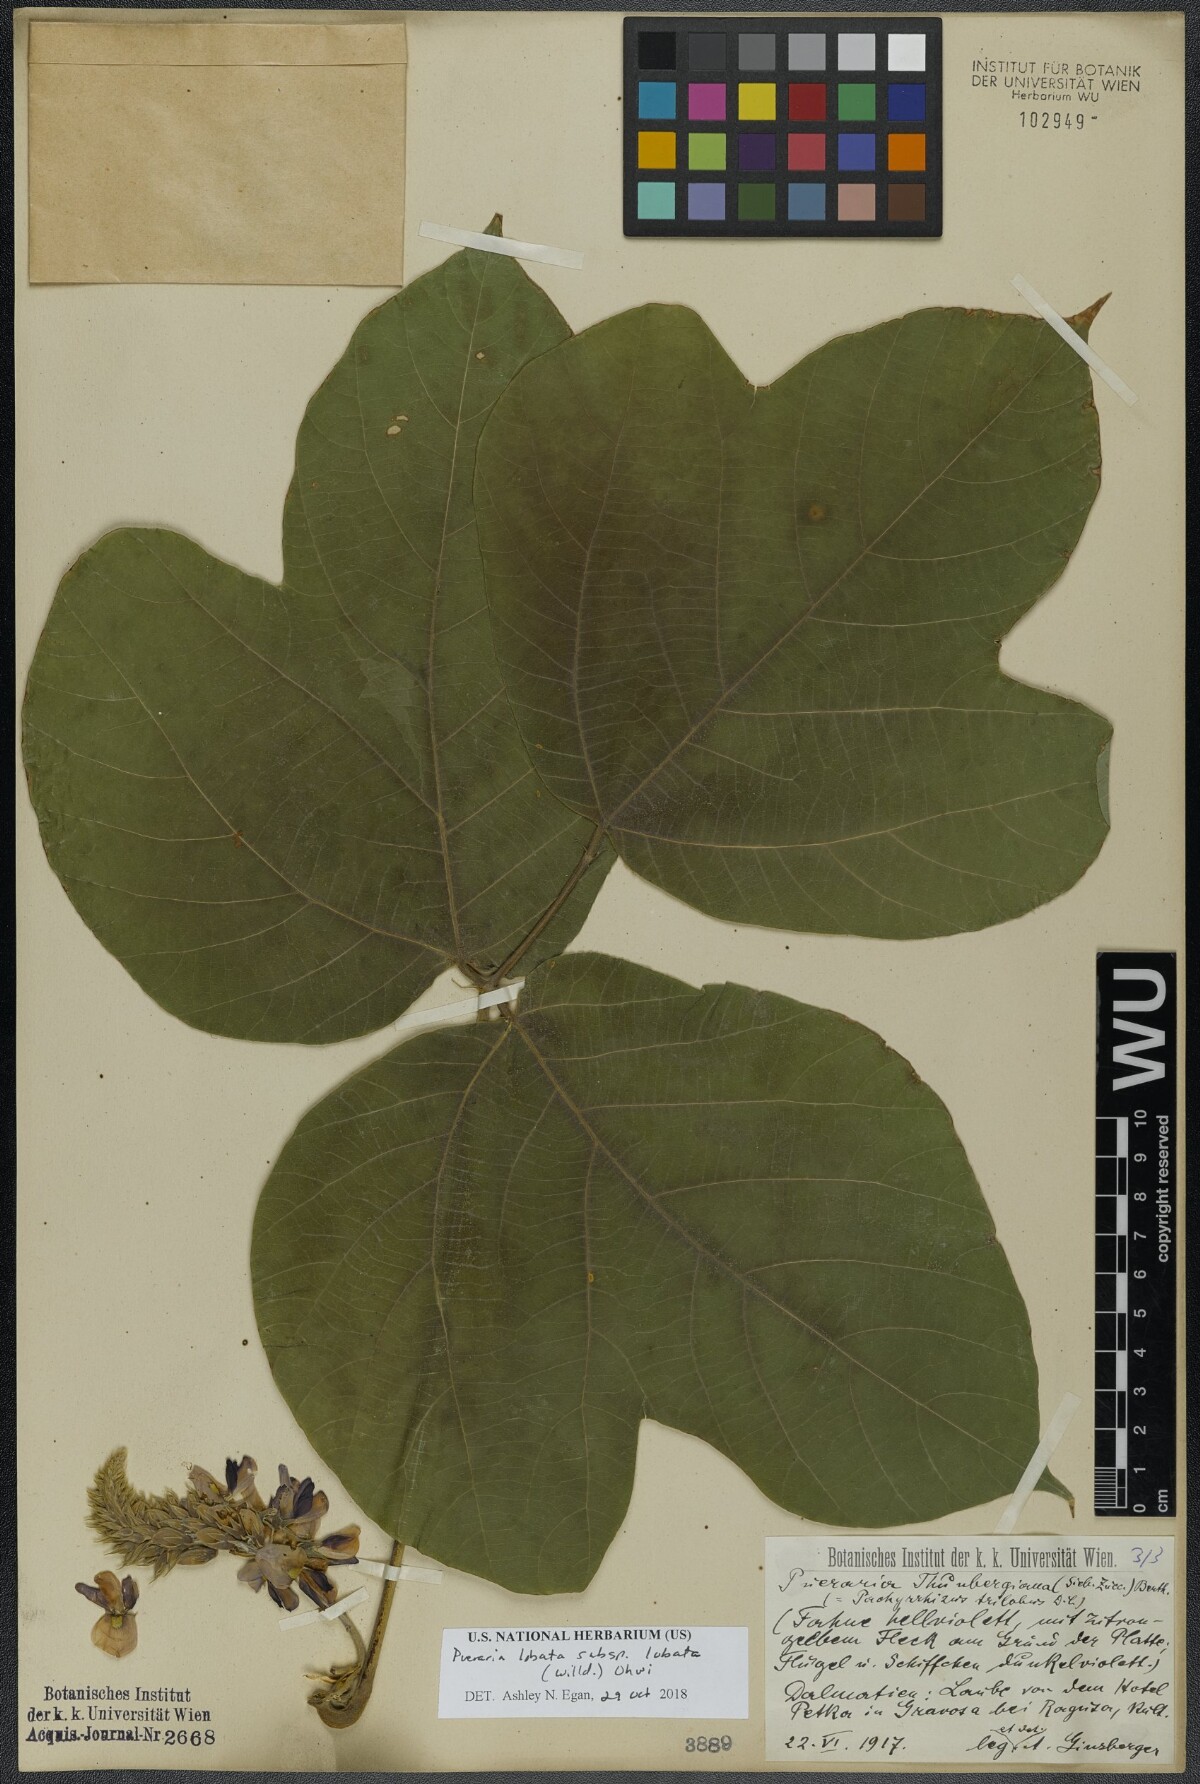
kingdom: Plantae
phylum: Tracheophyta
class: Magnoliopsida
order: Fabales
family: Fabaceae
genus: Pueraria
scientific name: Pueraria montana
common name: Kudzu
